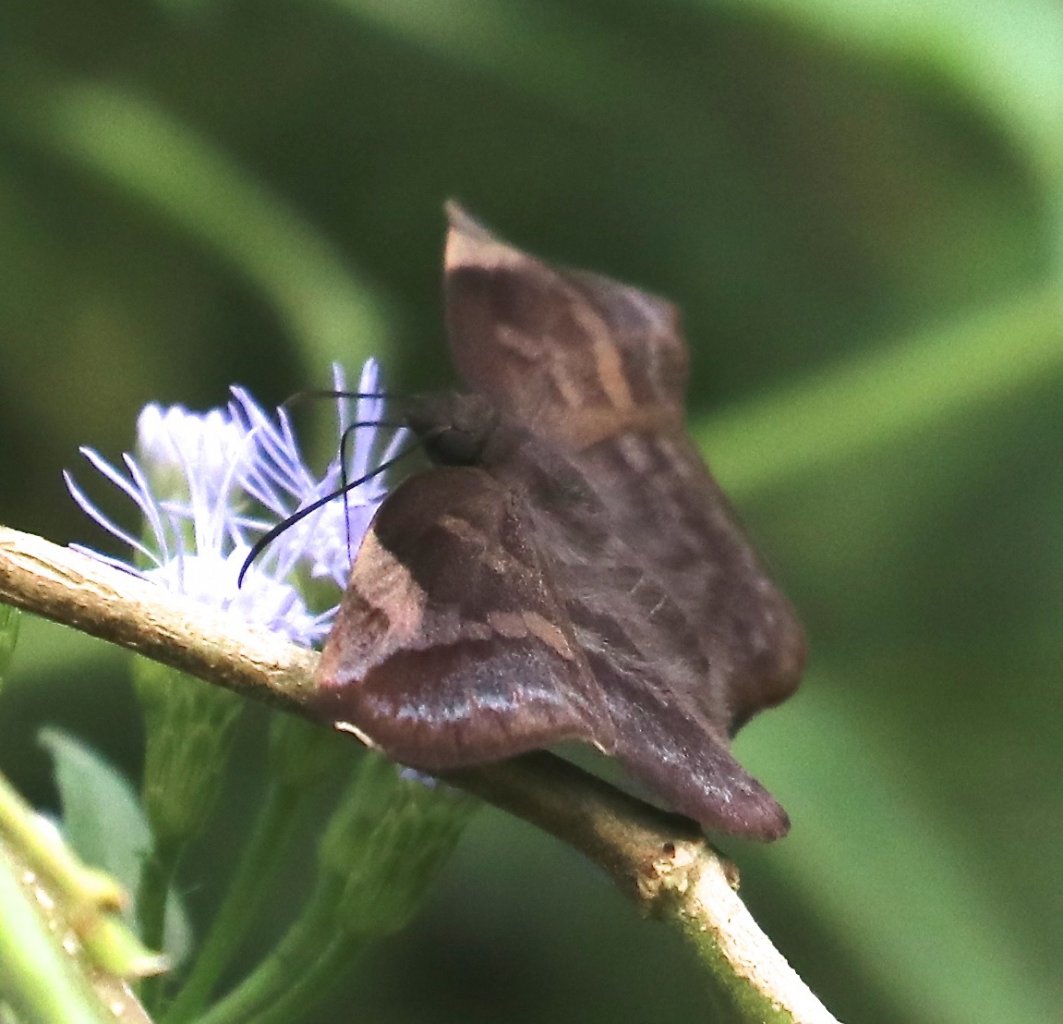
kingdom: Animalia
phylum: Arthropoda
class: Insecta
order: Lepidoptera
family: Hesperiidae
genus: Achlyodes
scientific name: Achlyodes thraso
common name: Sickle-winged Skipper
